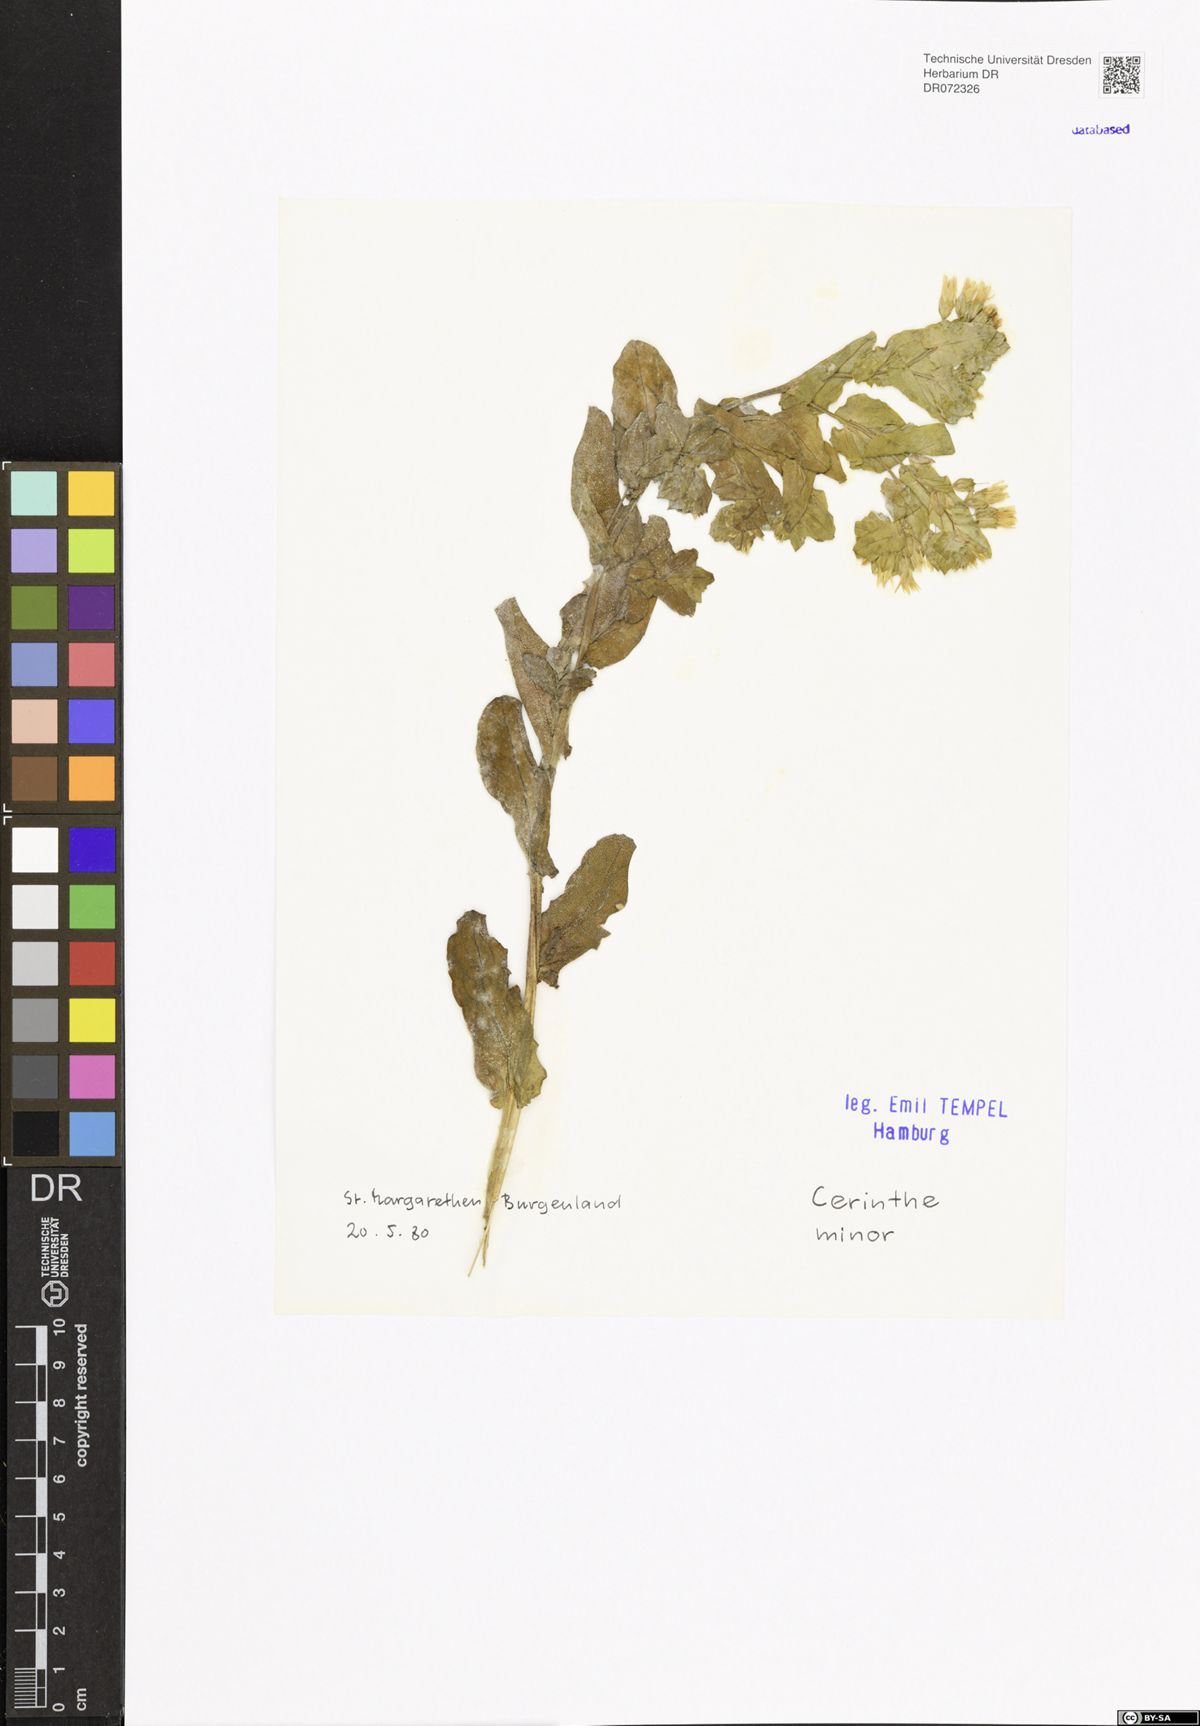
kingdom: Plantae
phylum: Tracheophyta
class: Magnoliopsida
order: Boraginales
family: Boraginaceae
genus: Cerinthe
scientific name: Cerinthe minor
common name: Lesser honeywort
